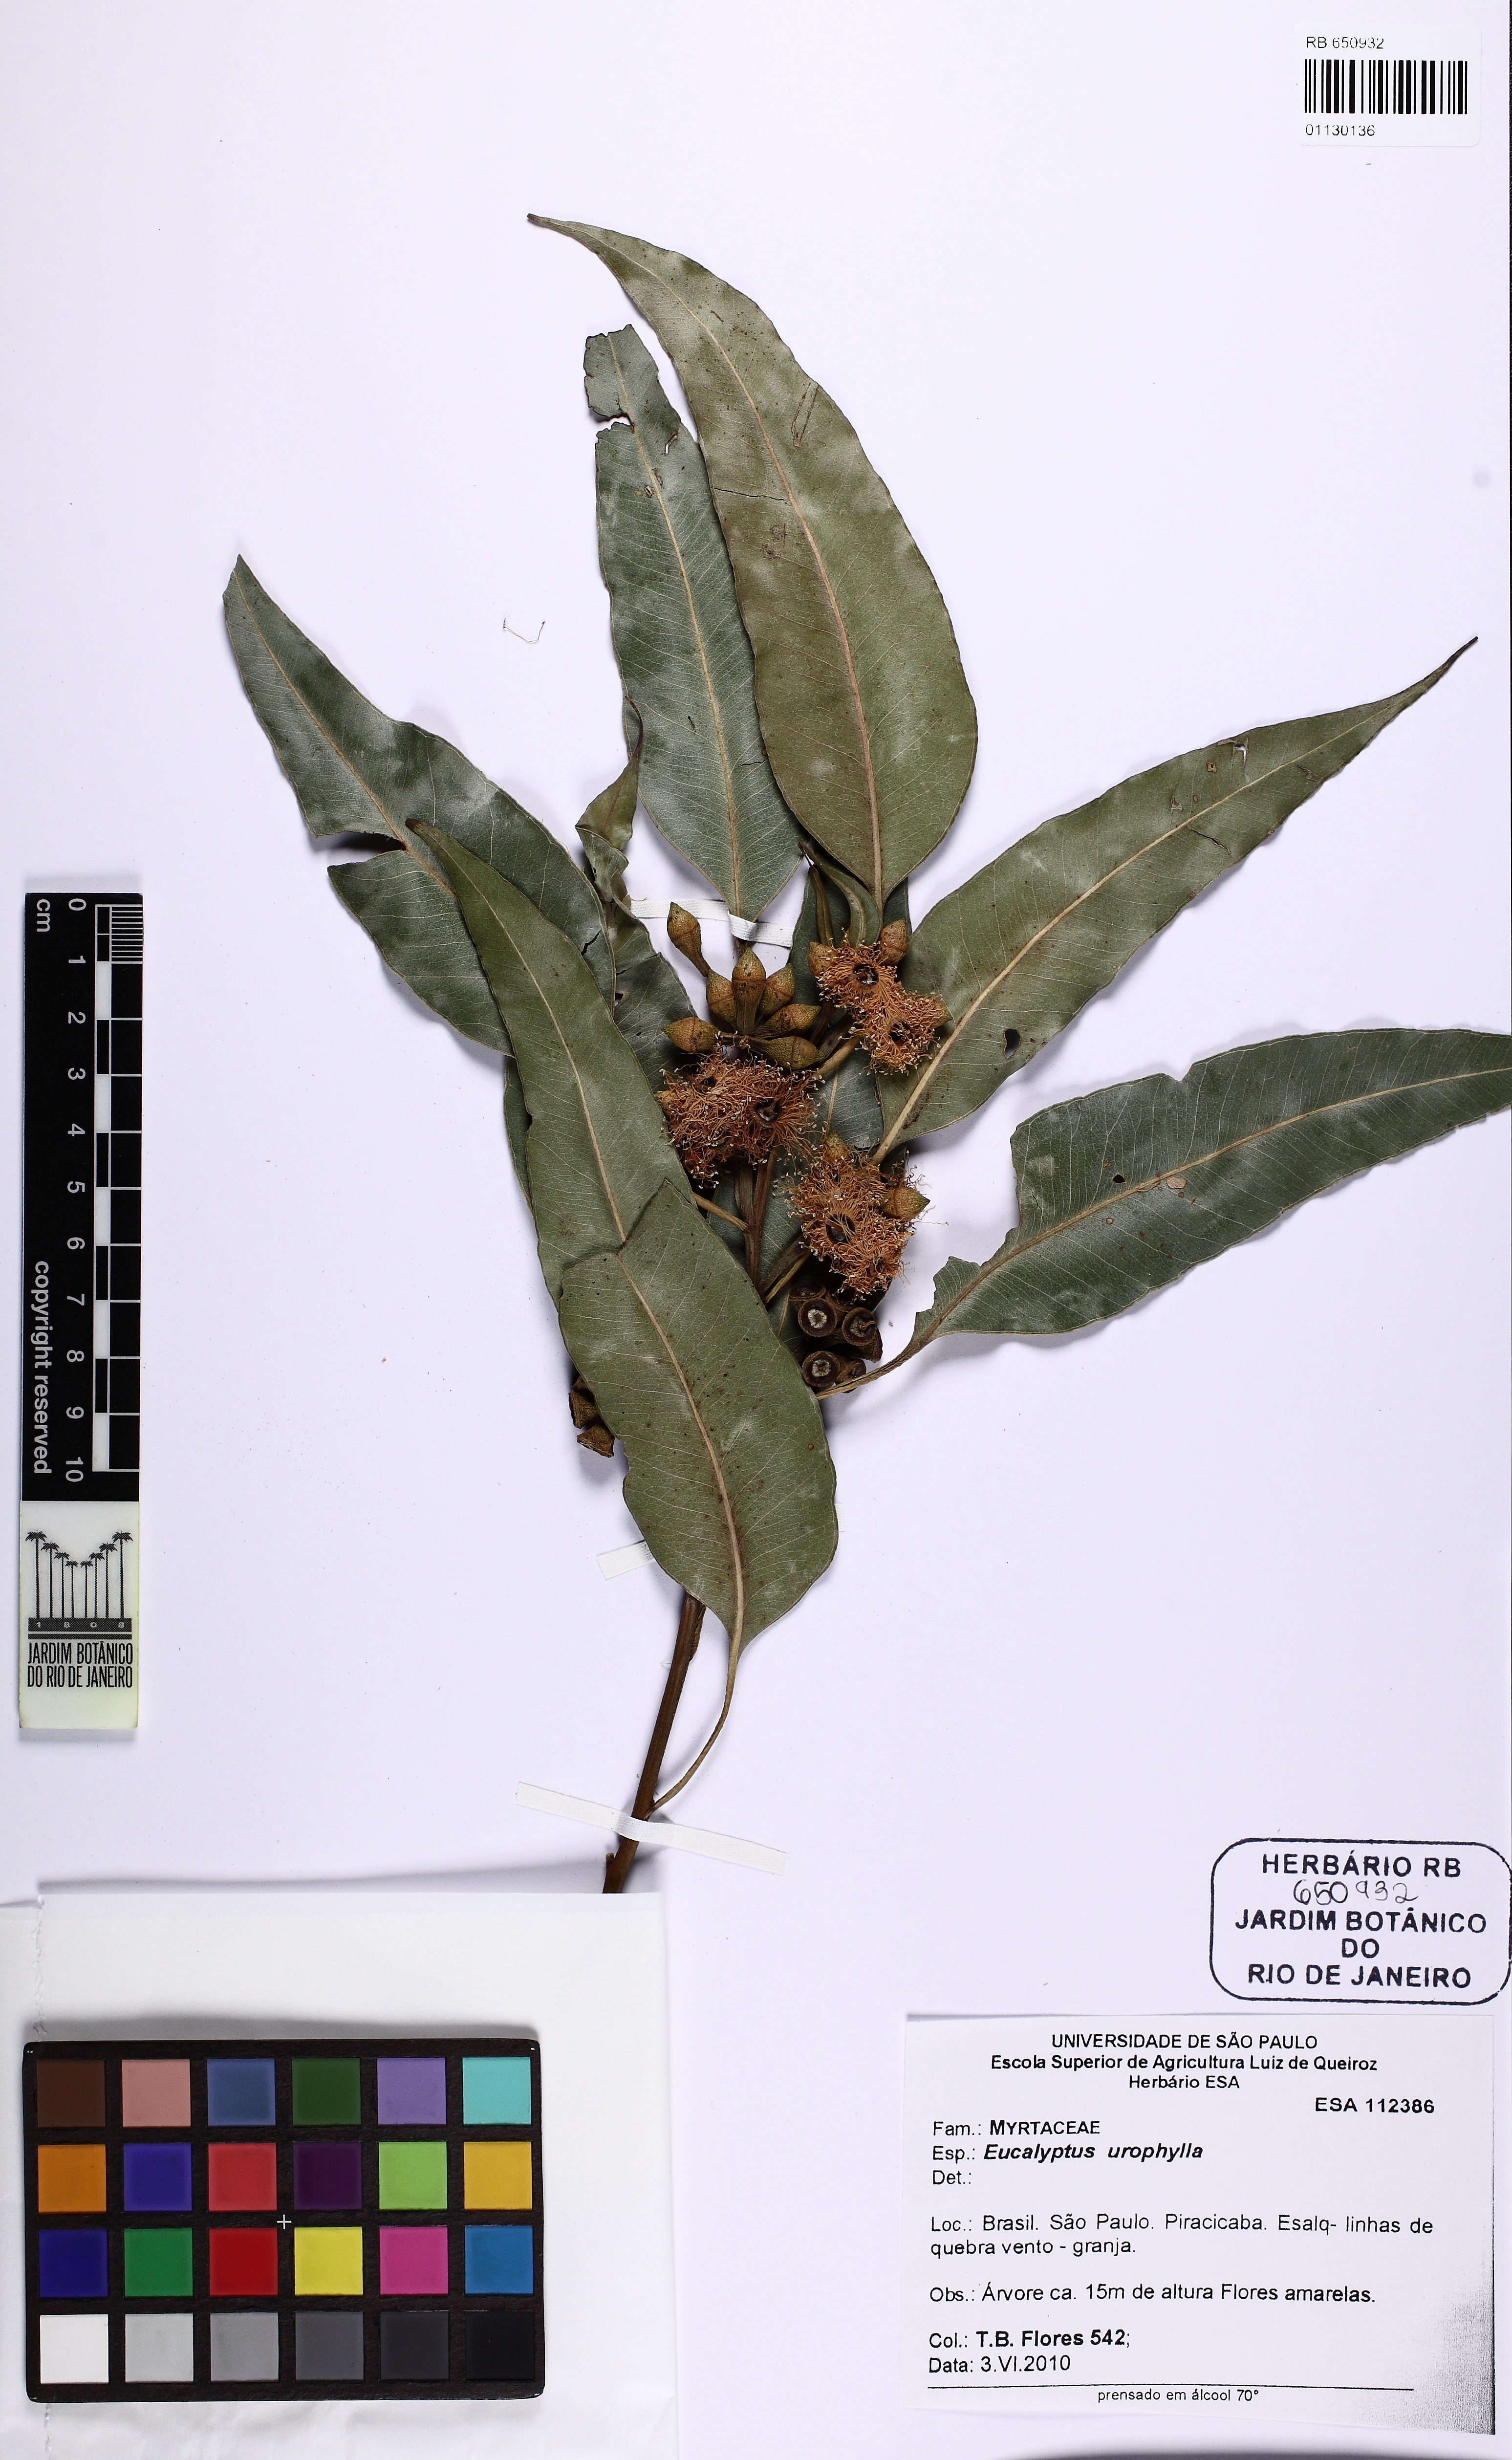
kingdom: Plantae
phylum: Tracheophyta
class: Magnoliopsida
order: Myrtales
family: Myrtaceae
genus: Eucalyptus
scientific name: Eucalyptus urophylla
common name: Timor mountain gum
